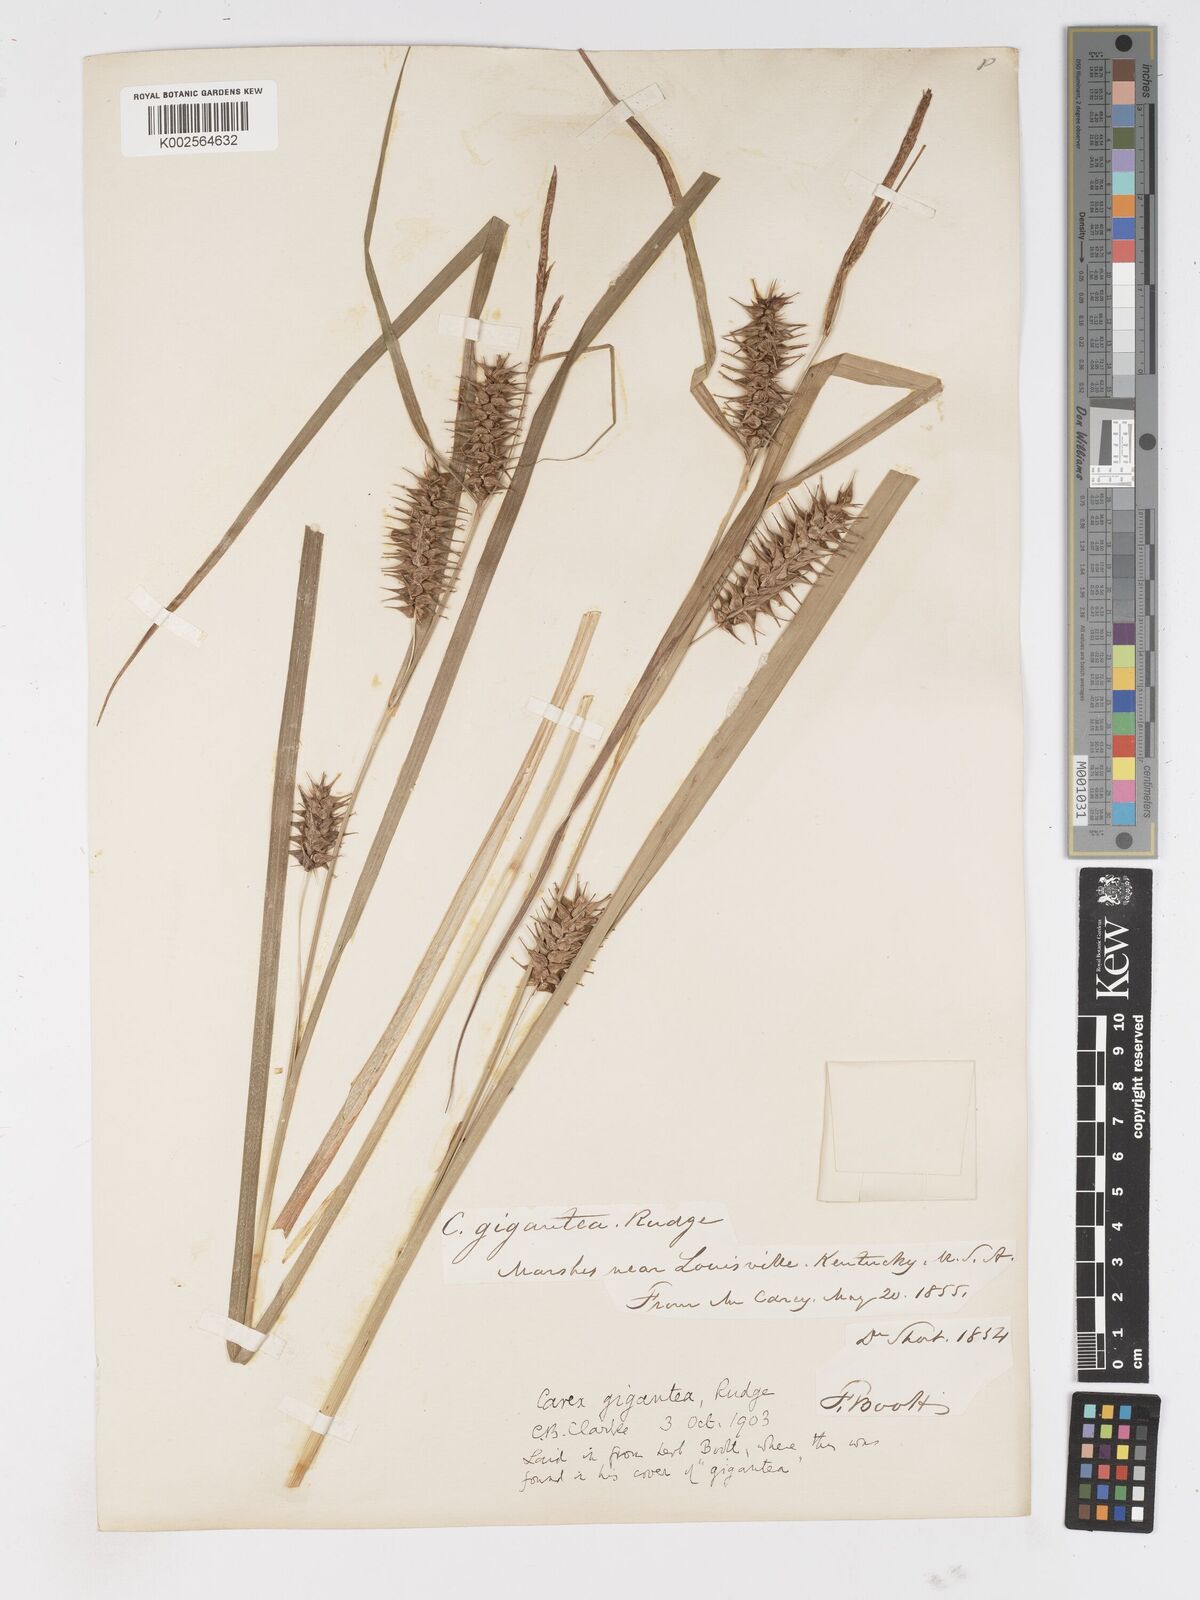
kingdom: Plantae
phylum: Tracheophyta
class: Liliopsida
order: Poales
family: Cyperaceae
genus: Carex
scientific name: Carex gigantea
